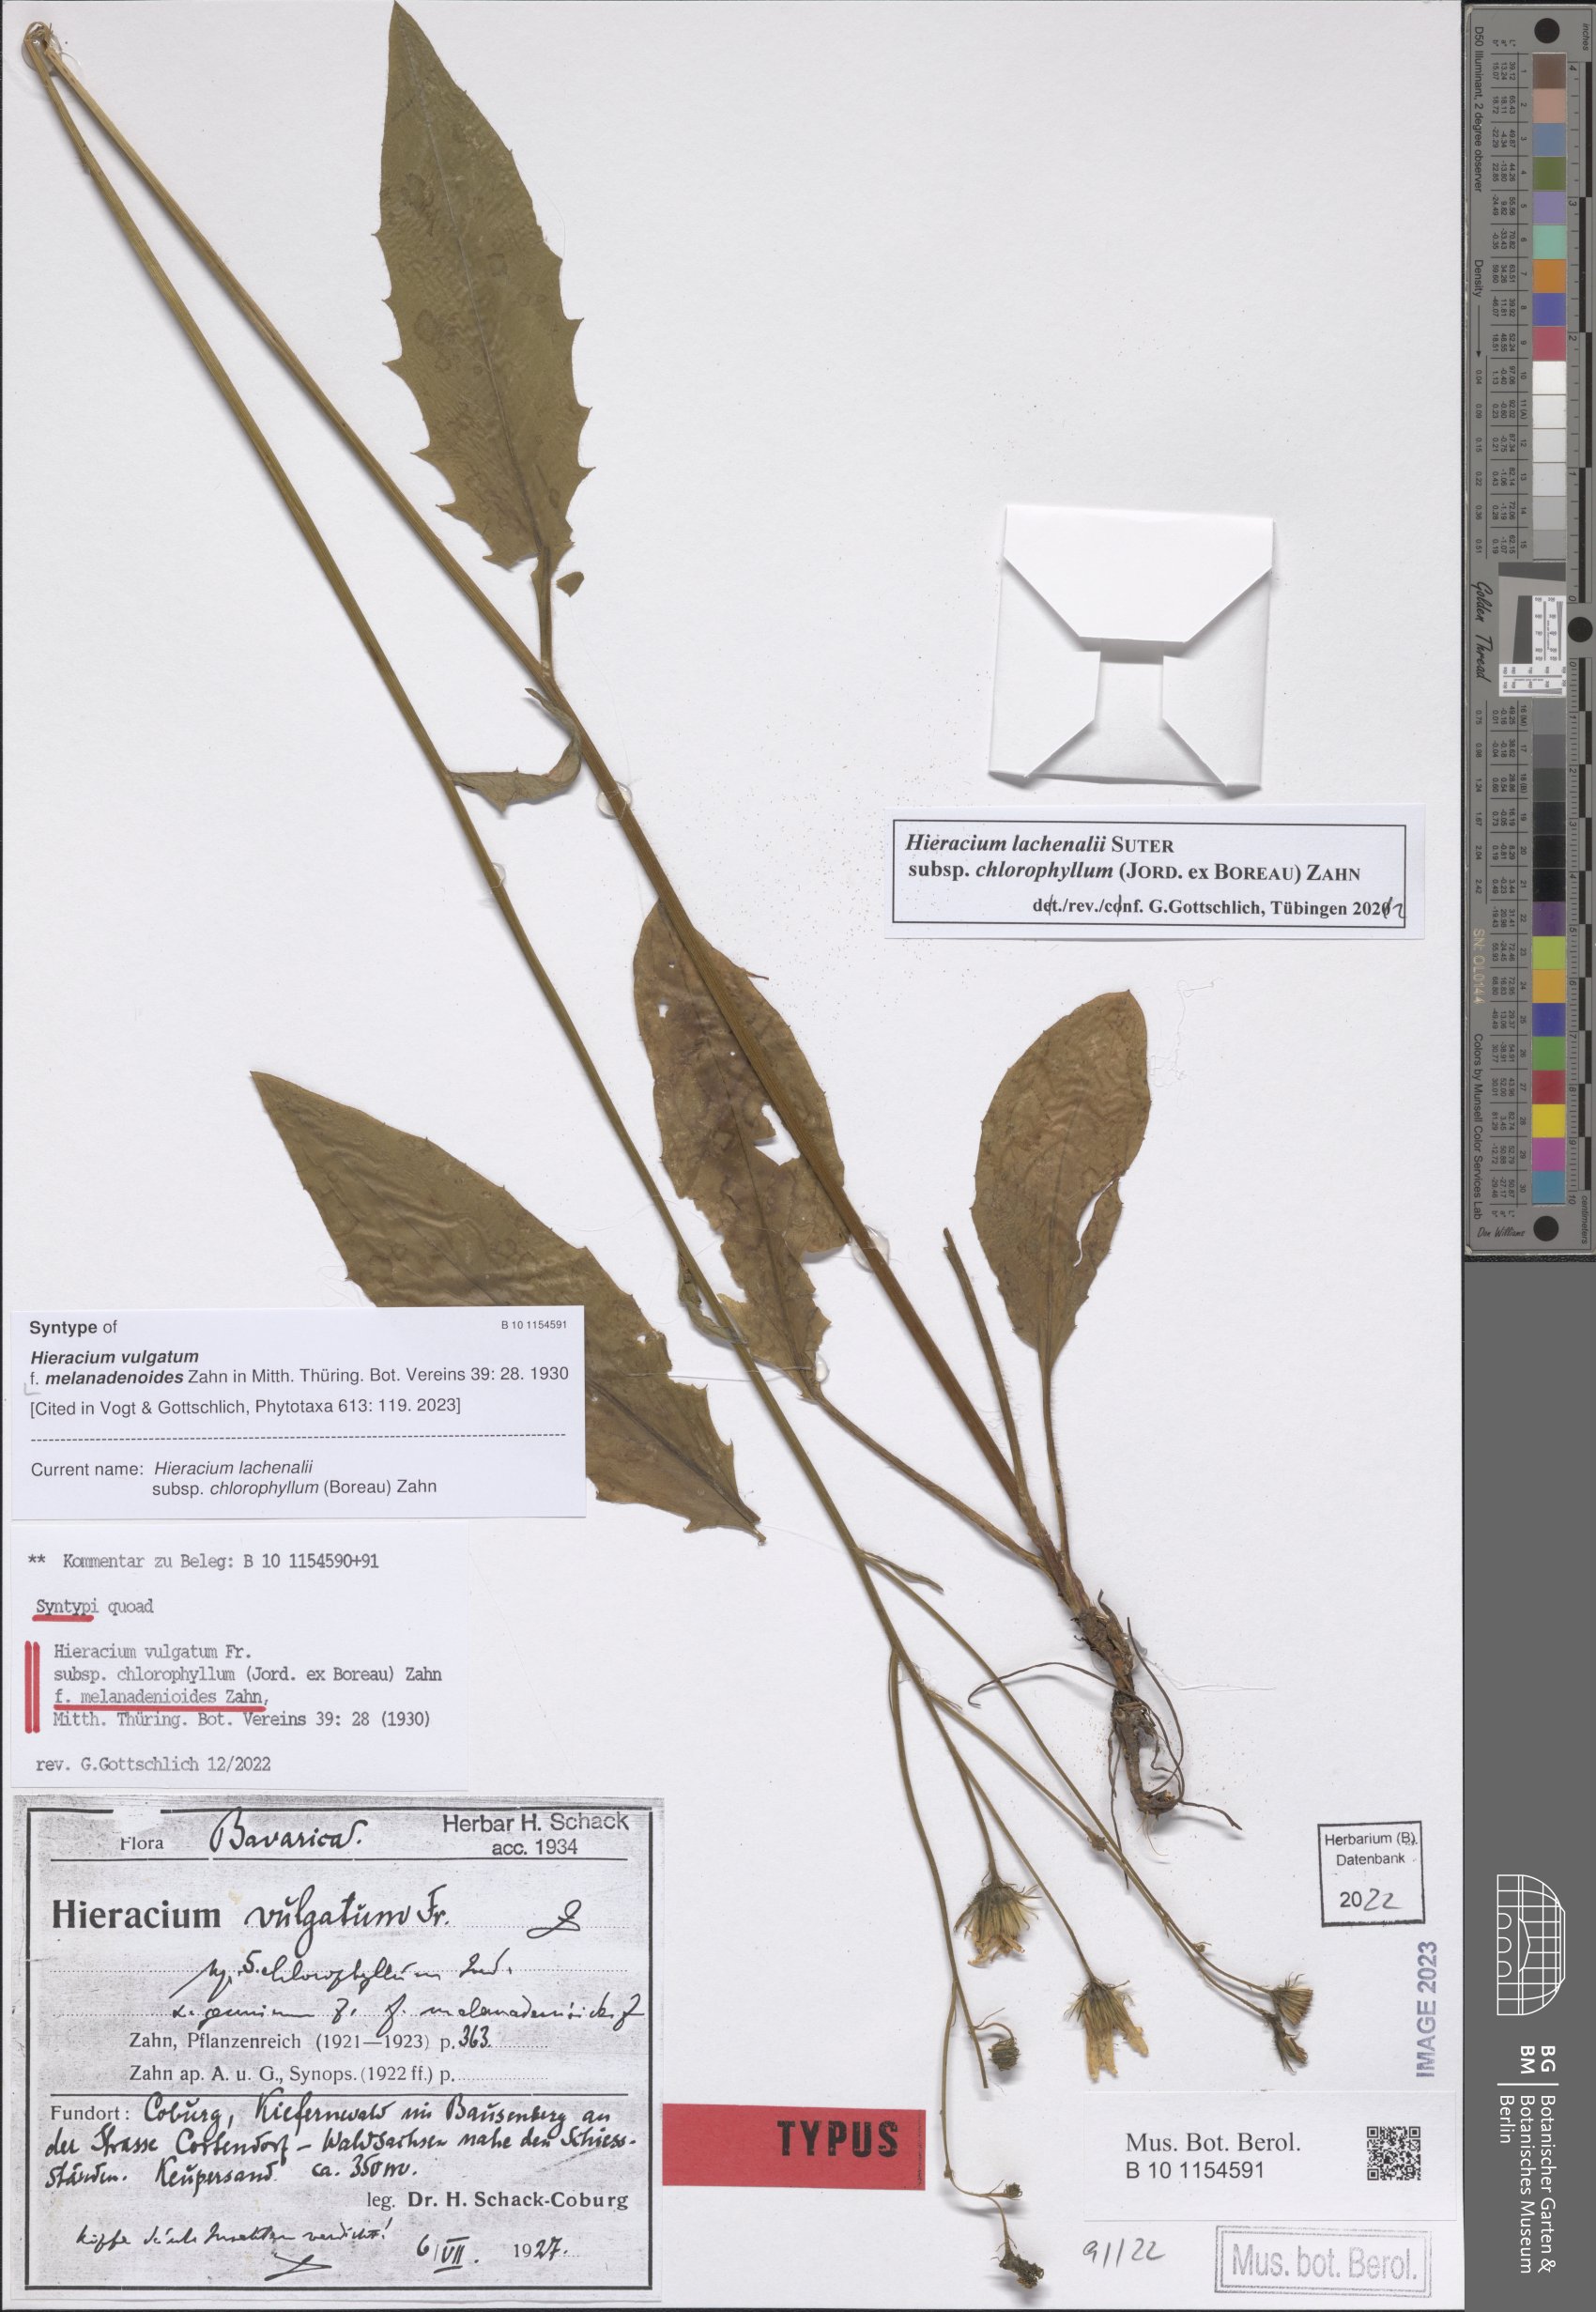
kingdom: Plantae
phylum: Tracheophyta
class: Magnoliopsida
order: Asterales
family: Asteraceae
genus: Hieracium
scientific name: Hieracium vulgatum
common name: Common hawkweed
